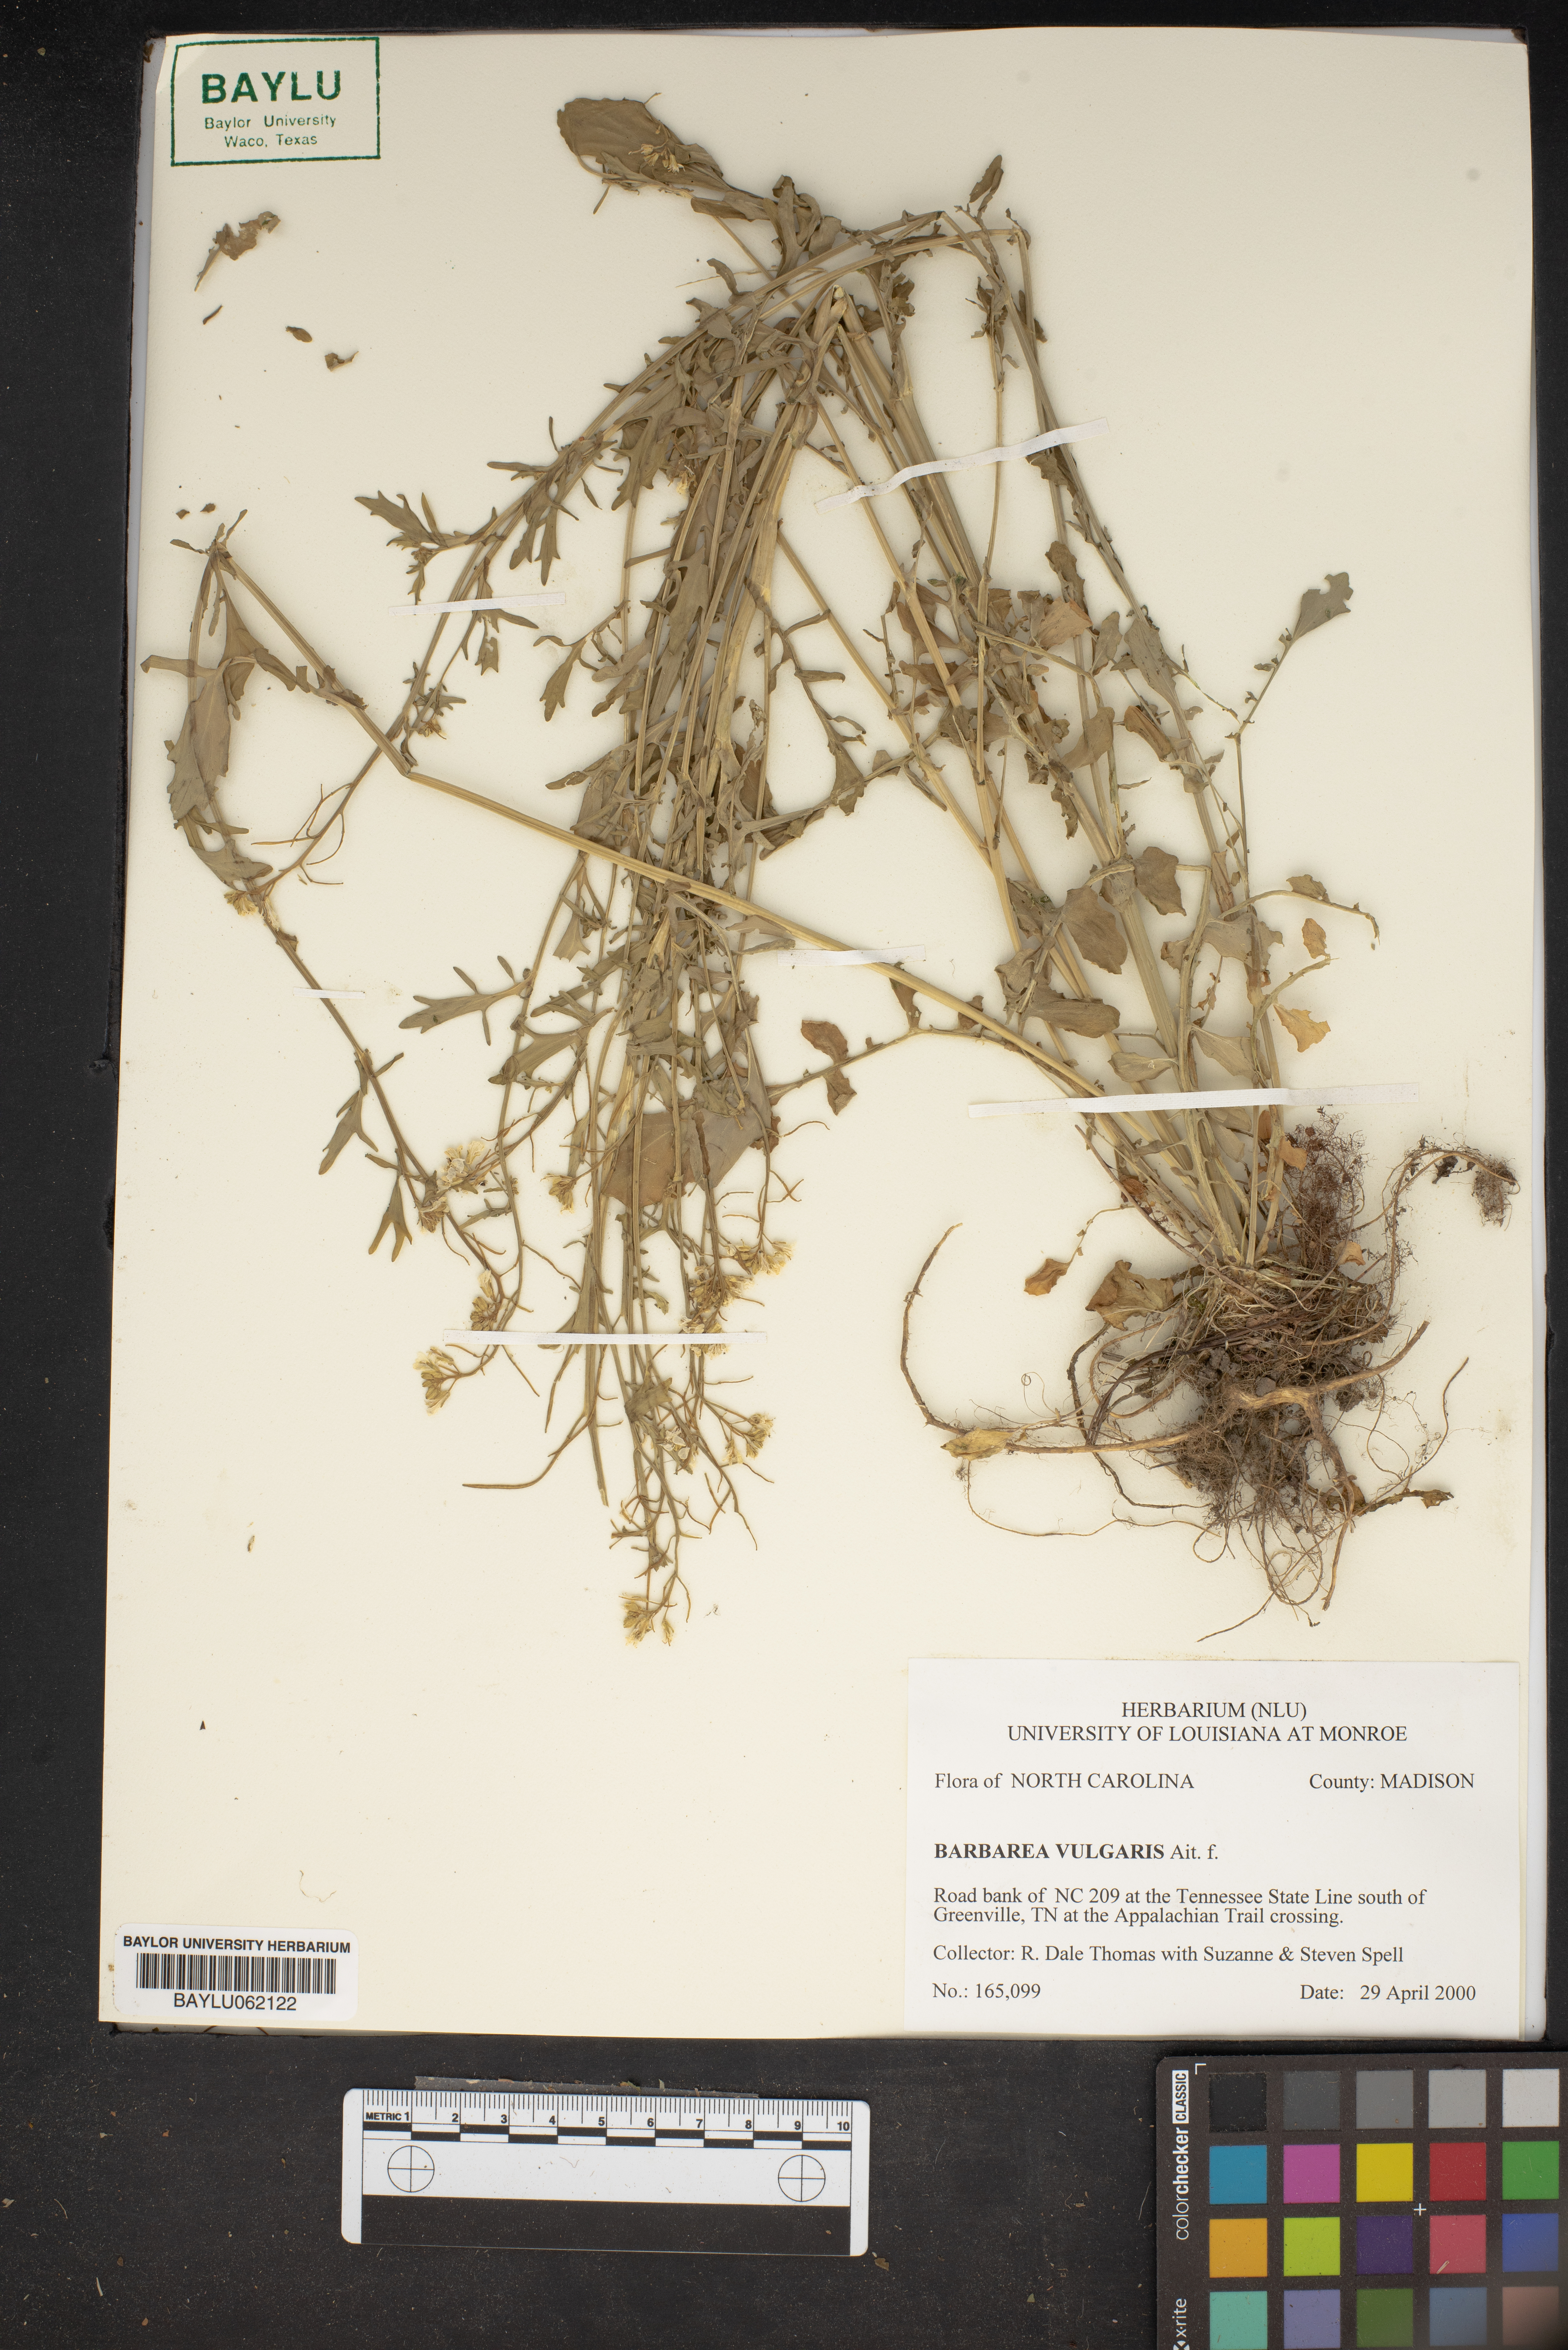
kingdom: Plantae
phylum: Tracheophyta
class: Magnoliopsida
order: Brassicales
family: Brassicaceae
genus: Barbarea
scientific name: Barbarea vulgaris
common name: Cressy-greens
